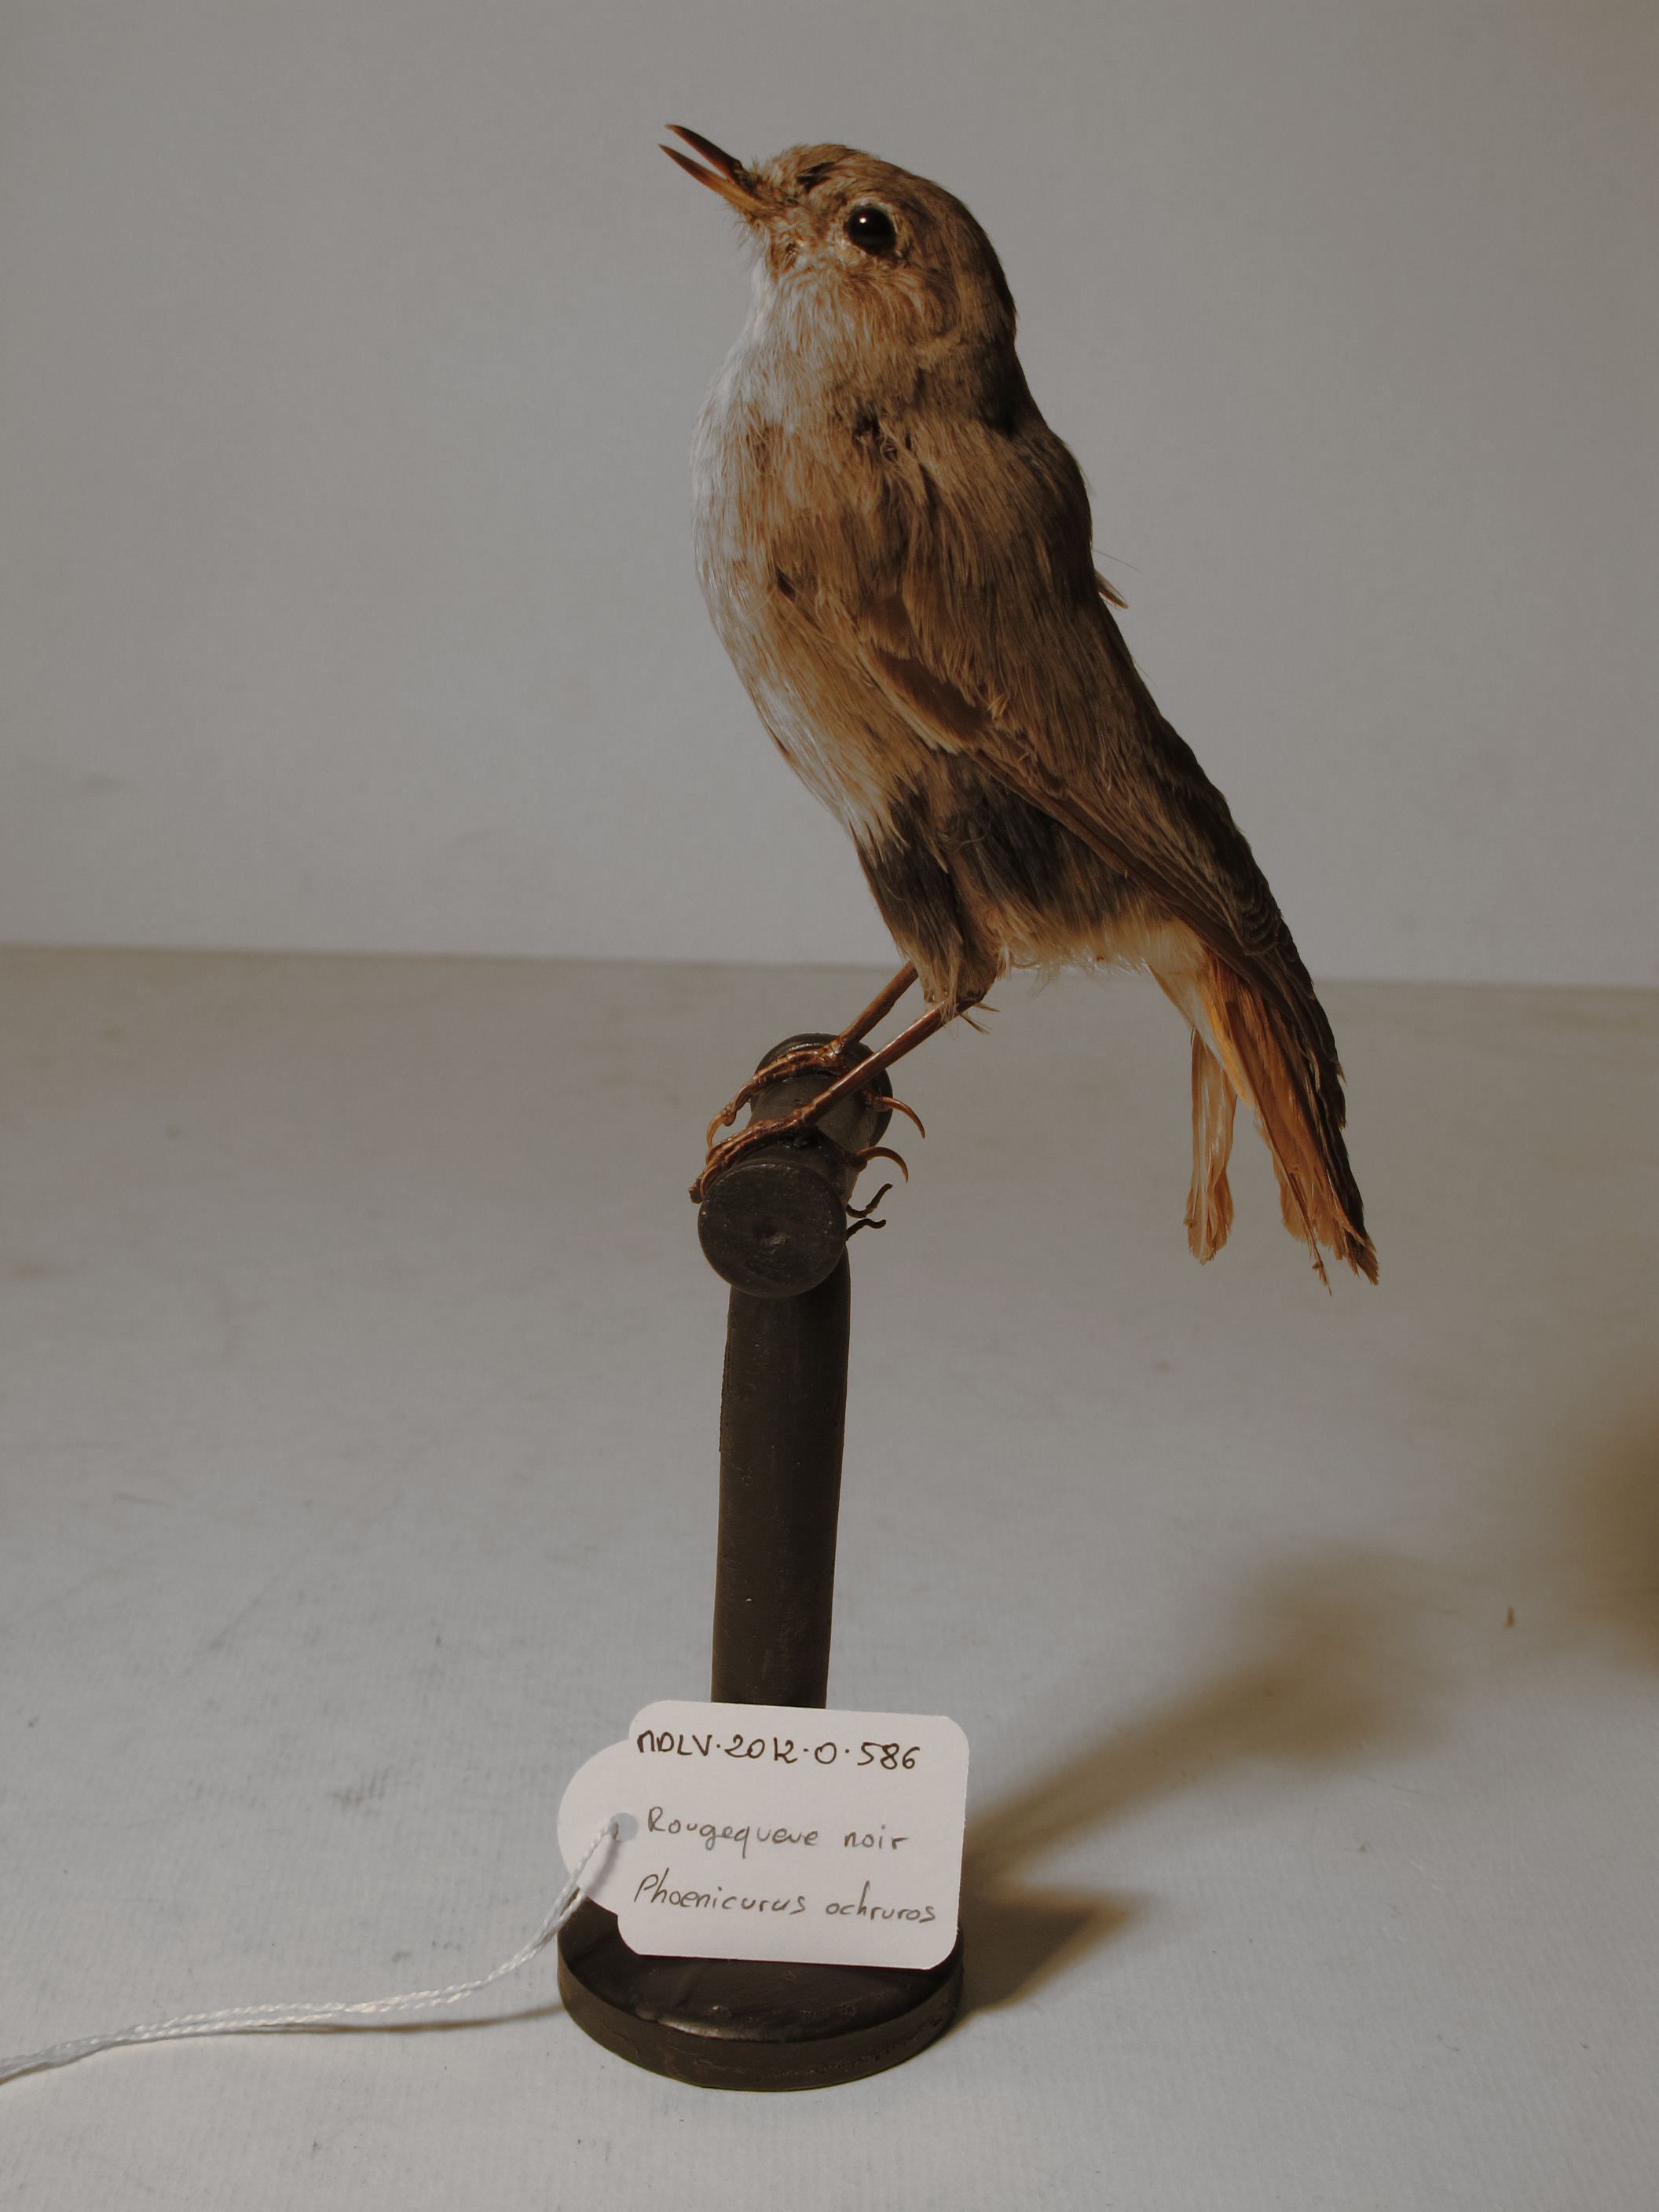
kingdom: Animalia
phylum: Chordata
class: Aves
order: Passeriformes
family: Muscicapidae
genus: Phoenicurus
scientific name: Phoenicurus ochruros
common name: Black Redstart
